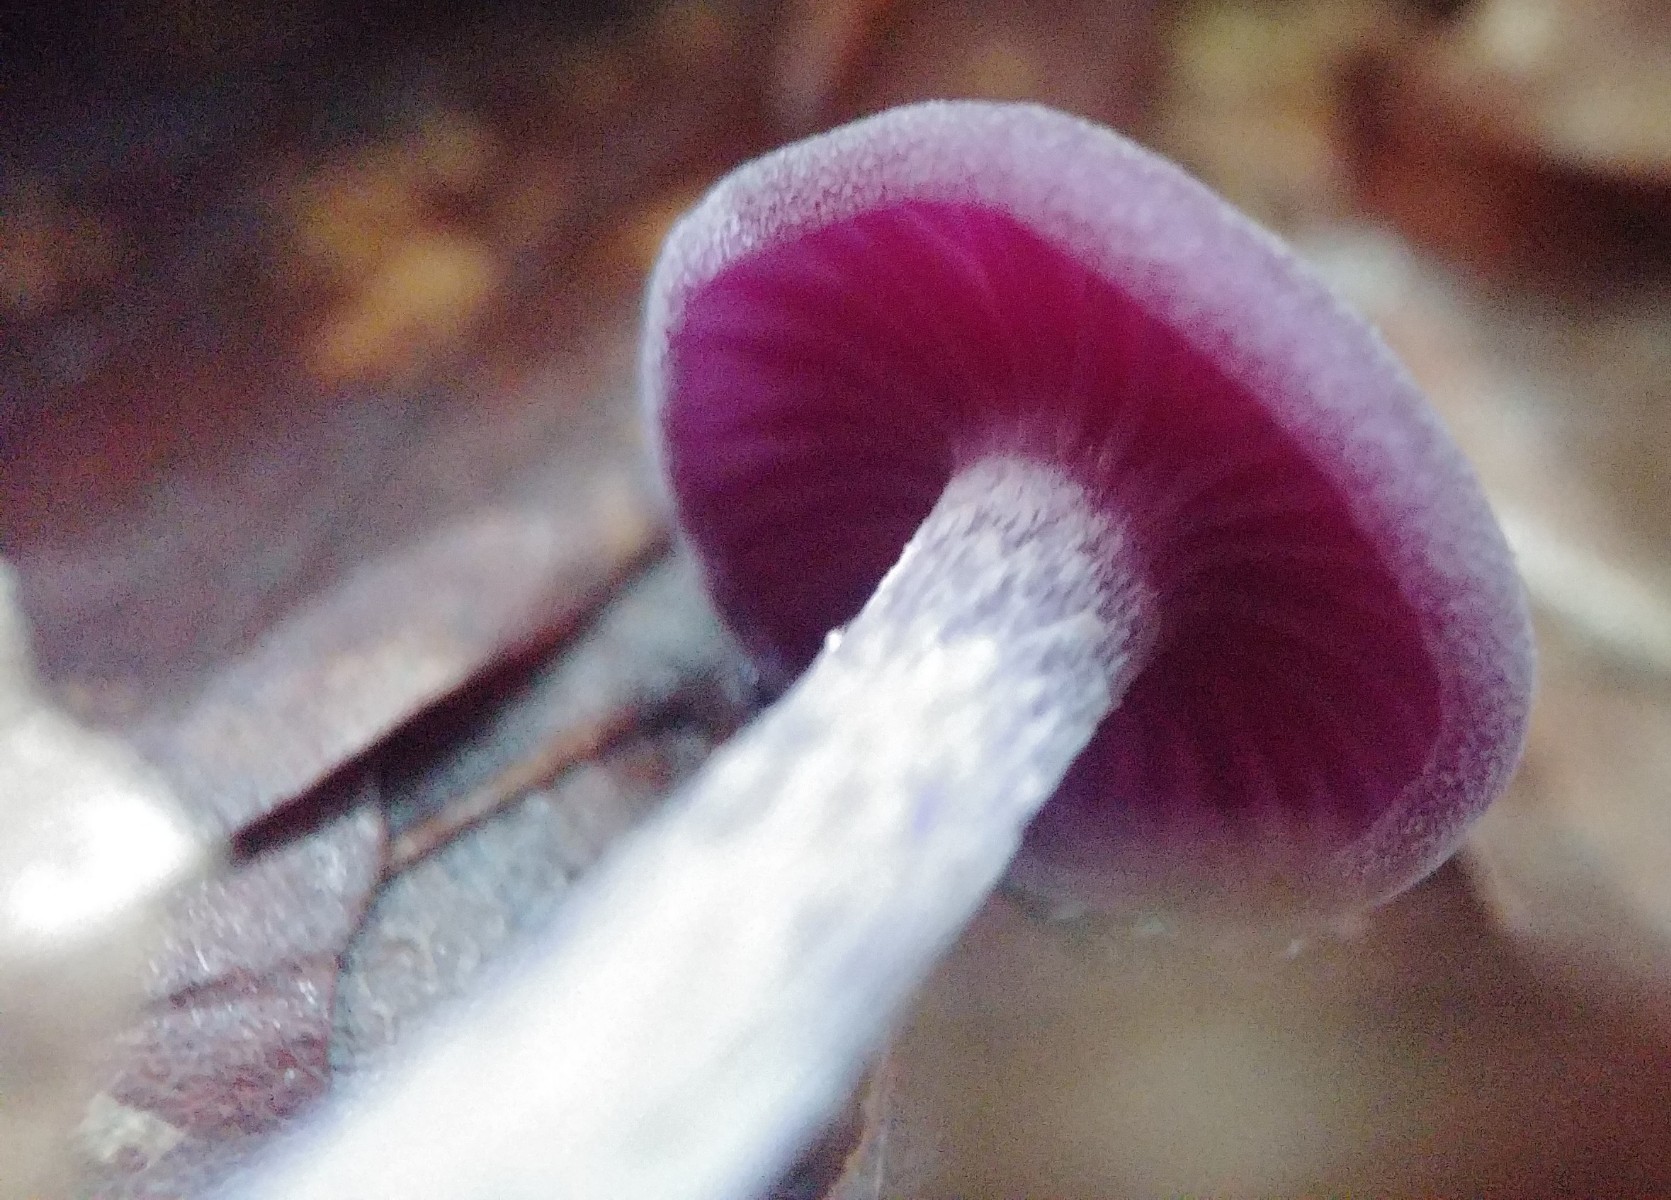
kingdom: Fungi
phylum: Basidiomycota
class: Agaricomycetes
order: Agaricales
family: Hydnangiaceae
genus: Laccaria
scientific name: Laccaria amethystina
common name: violet ametysthat
